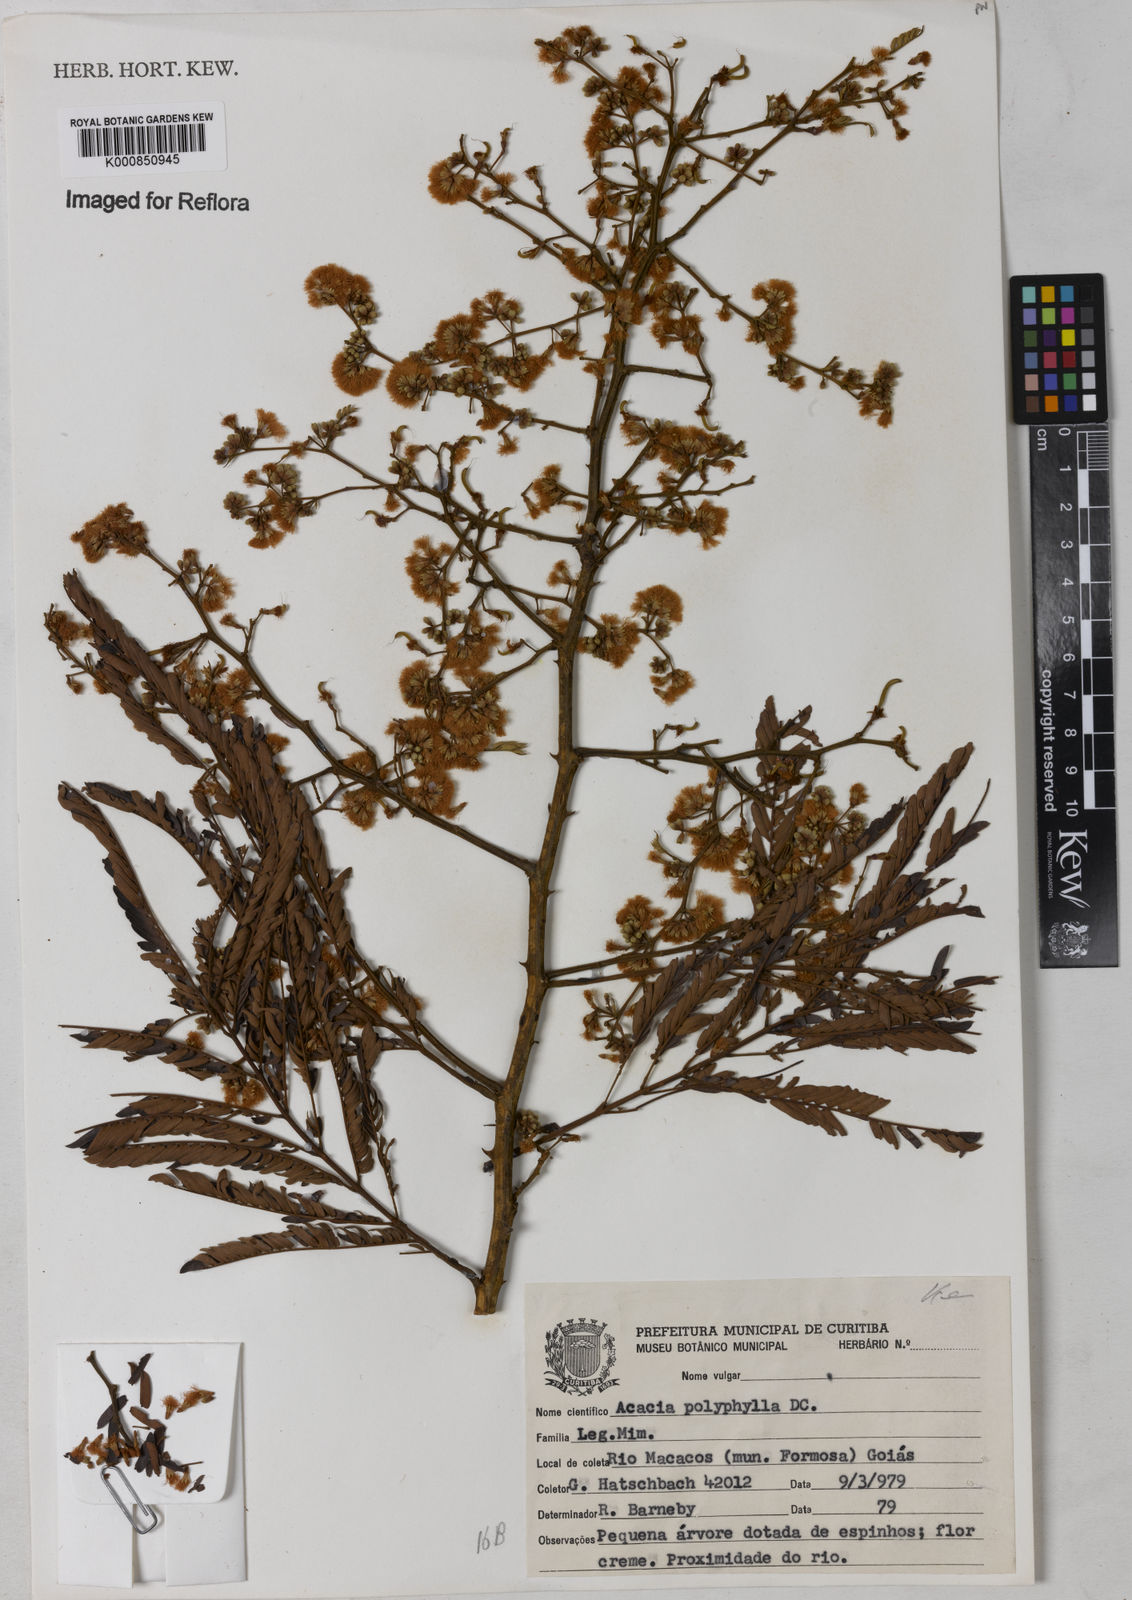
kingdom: Plantae
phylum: Tracheophyta
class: Magnoliopsida
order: Fabales
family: Fabaceae
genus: Senegalia
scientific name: Senegalia polyphylla
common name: White-tamarind
